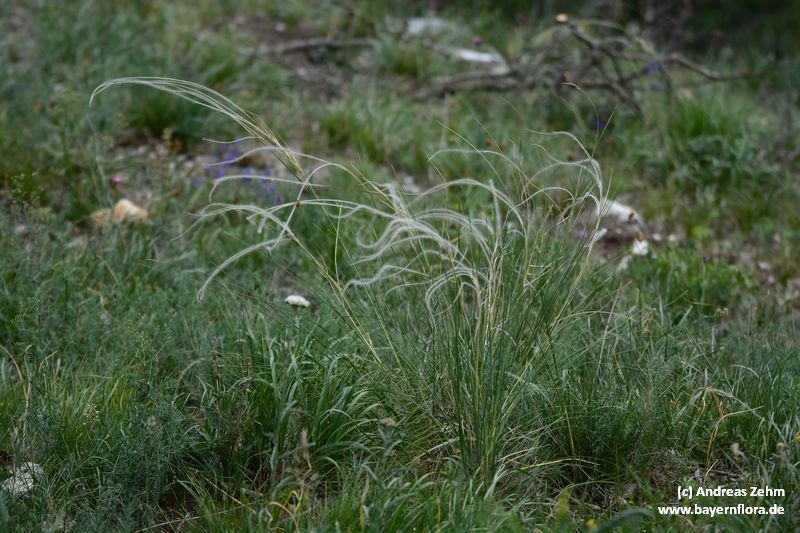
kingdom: Plantae
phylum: Tracheophyta
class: Liliopsida
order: Poales
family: Poaceae
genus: Stipa
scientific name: Stipa pulcherrima
